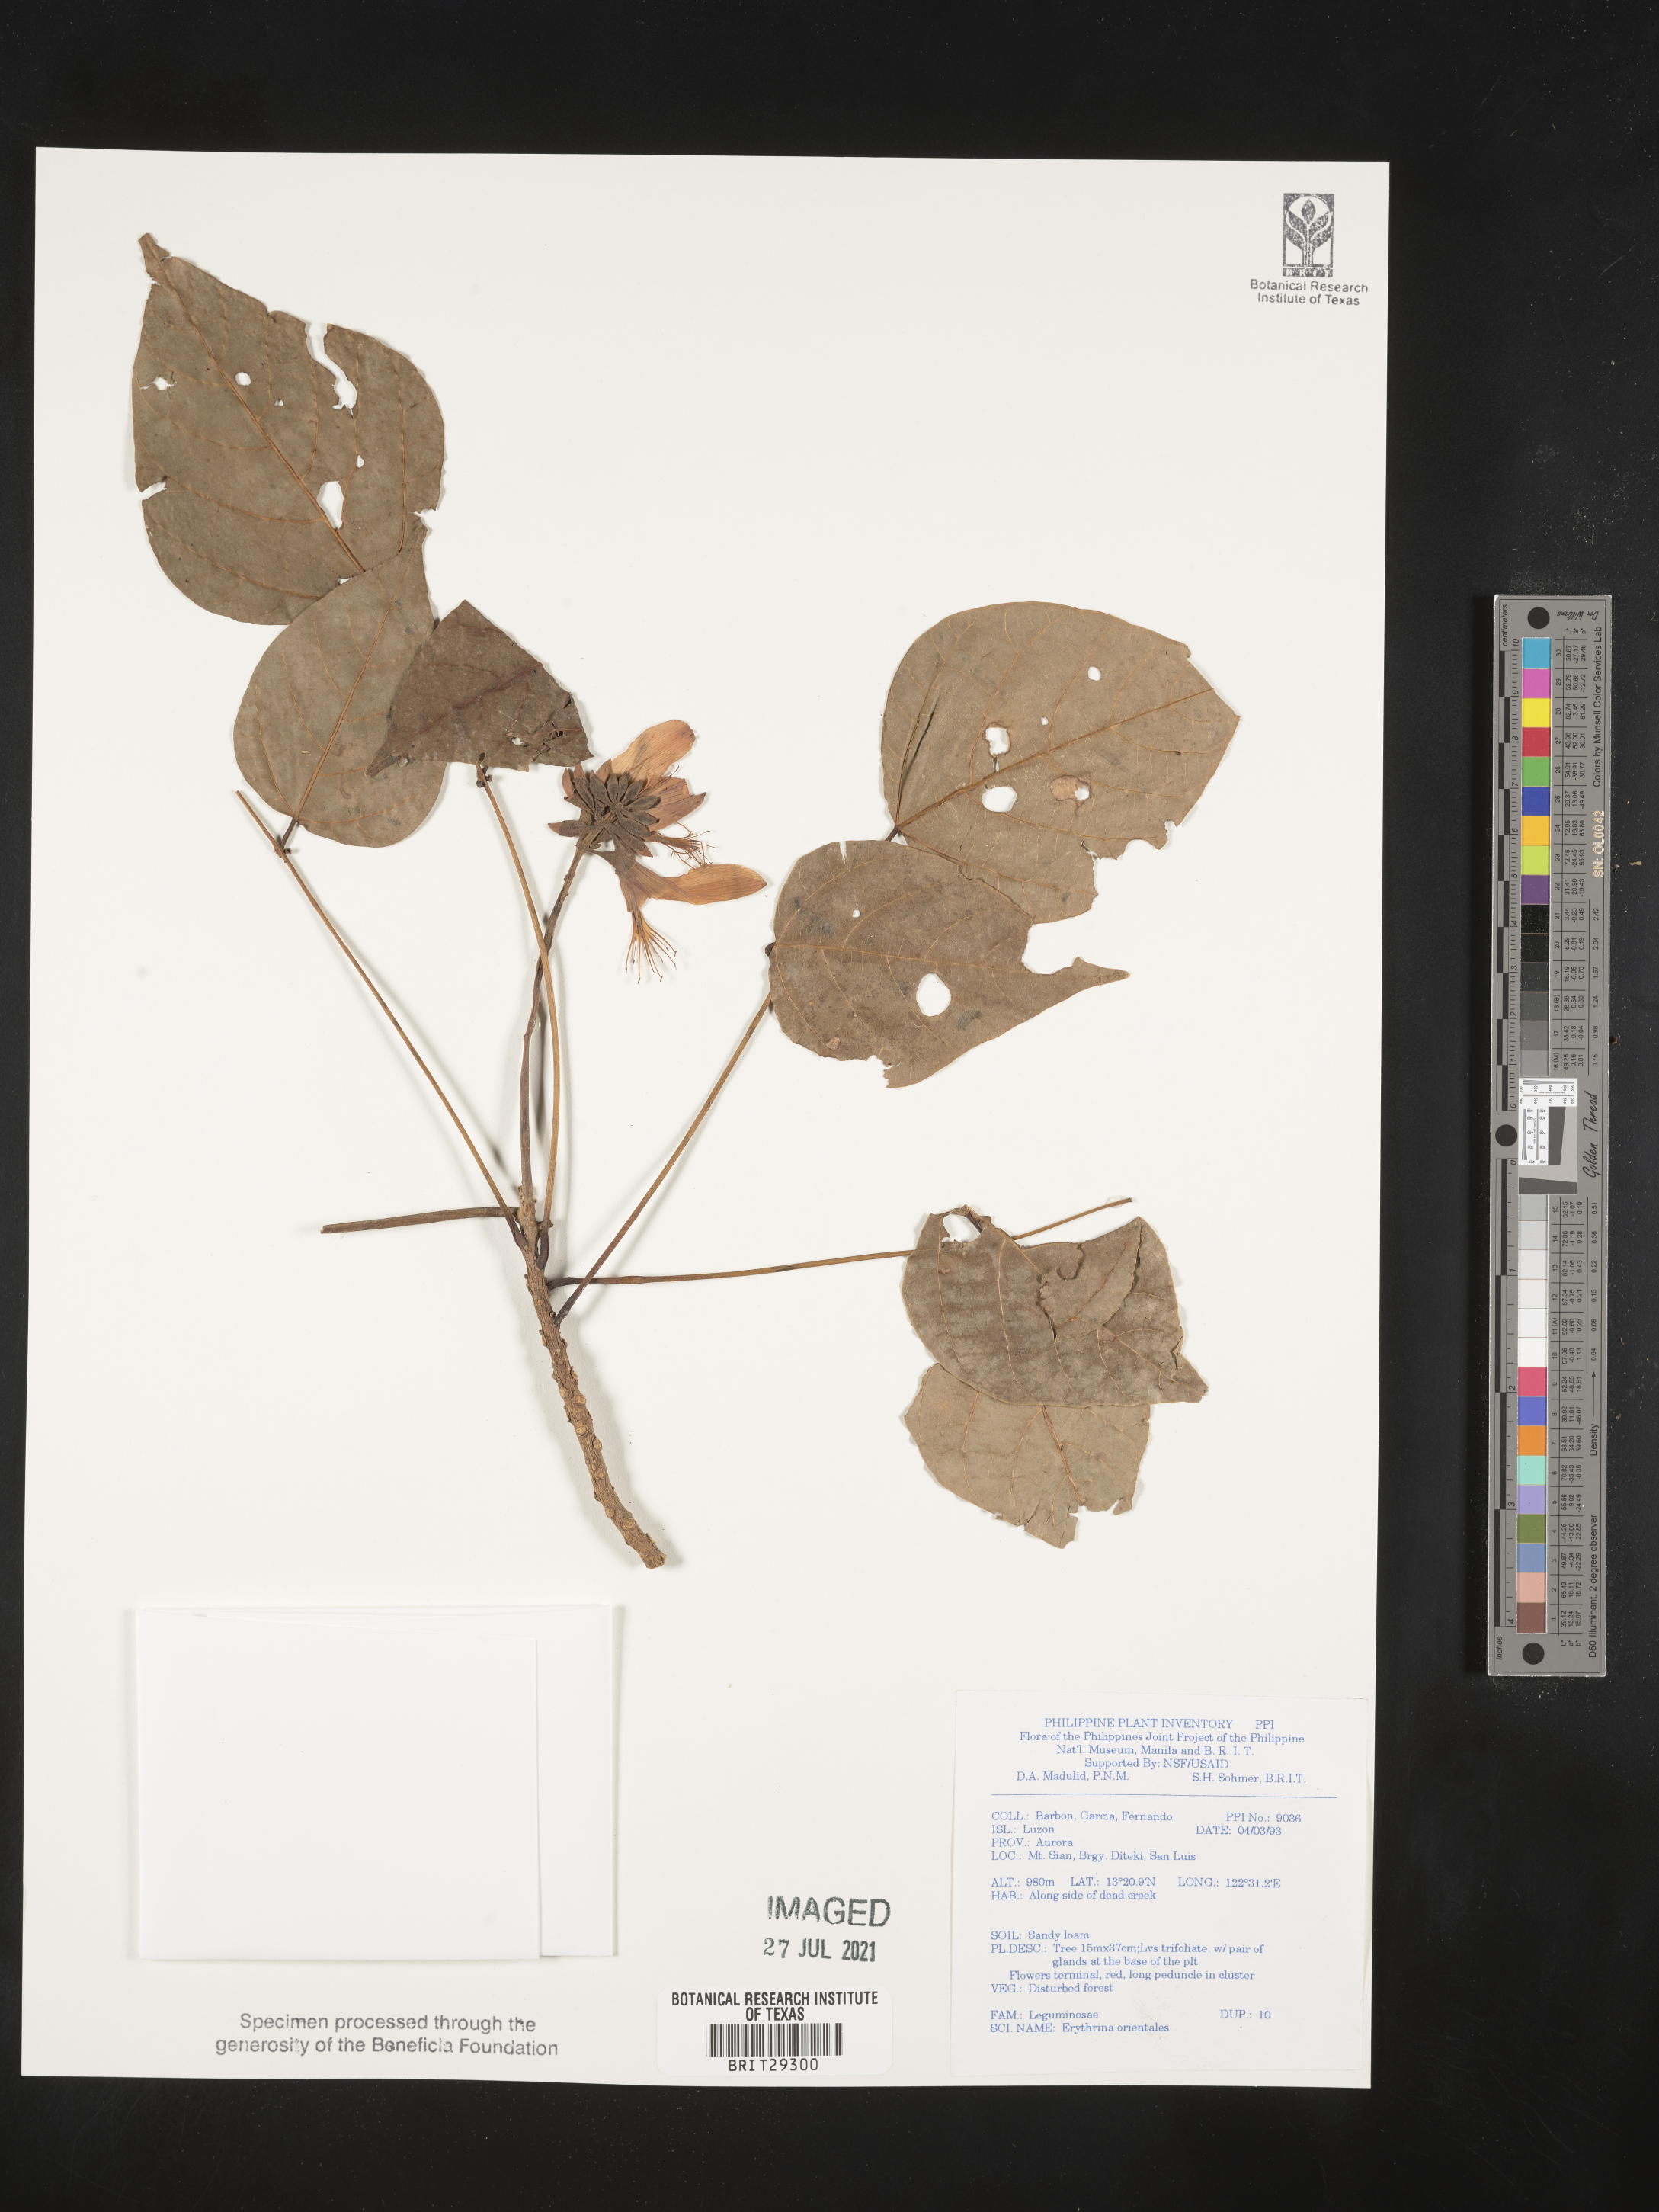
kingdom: Plantae
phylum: Tracheophyta
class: Magnoliopsida
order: Fabales
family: Fabaceae
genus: Erythrina
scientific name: Erythrina variegata
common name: Indian coral tree
